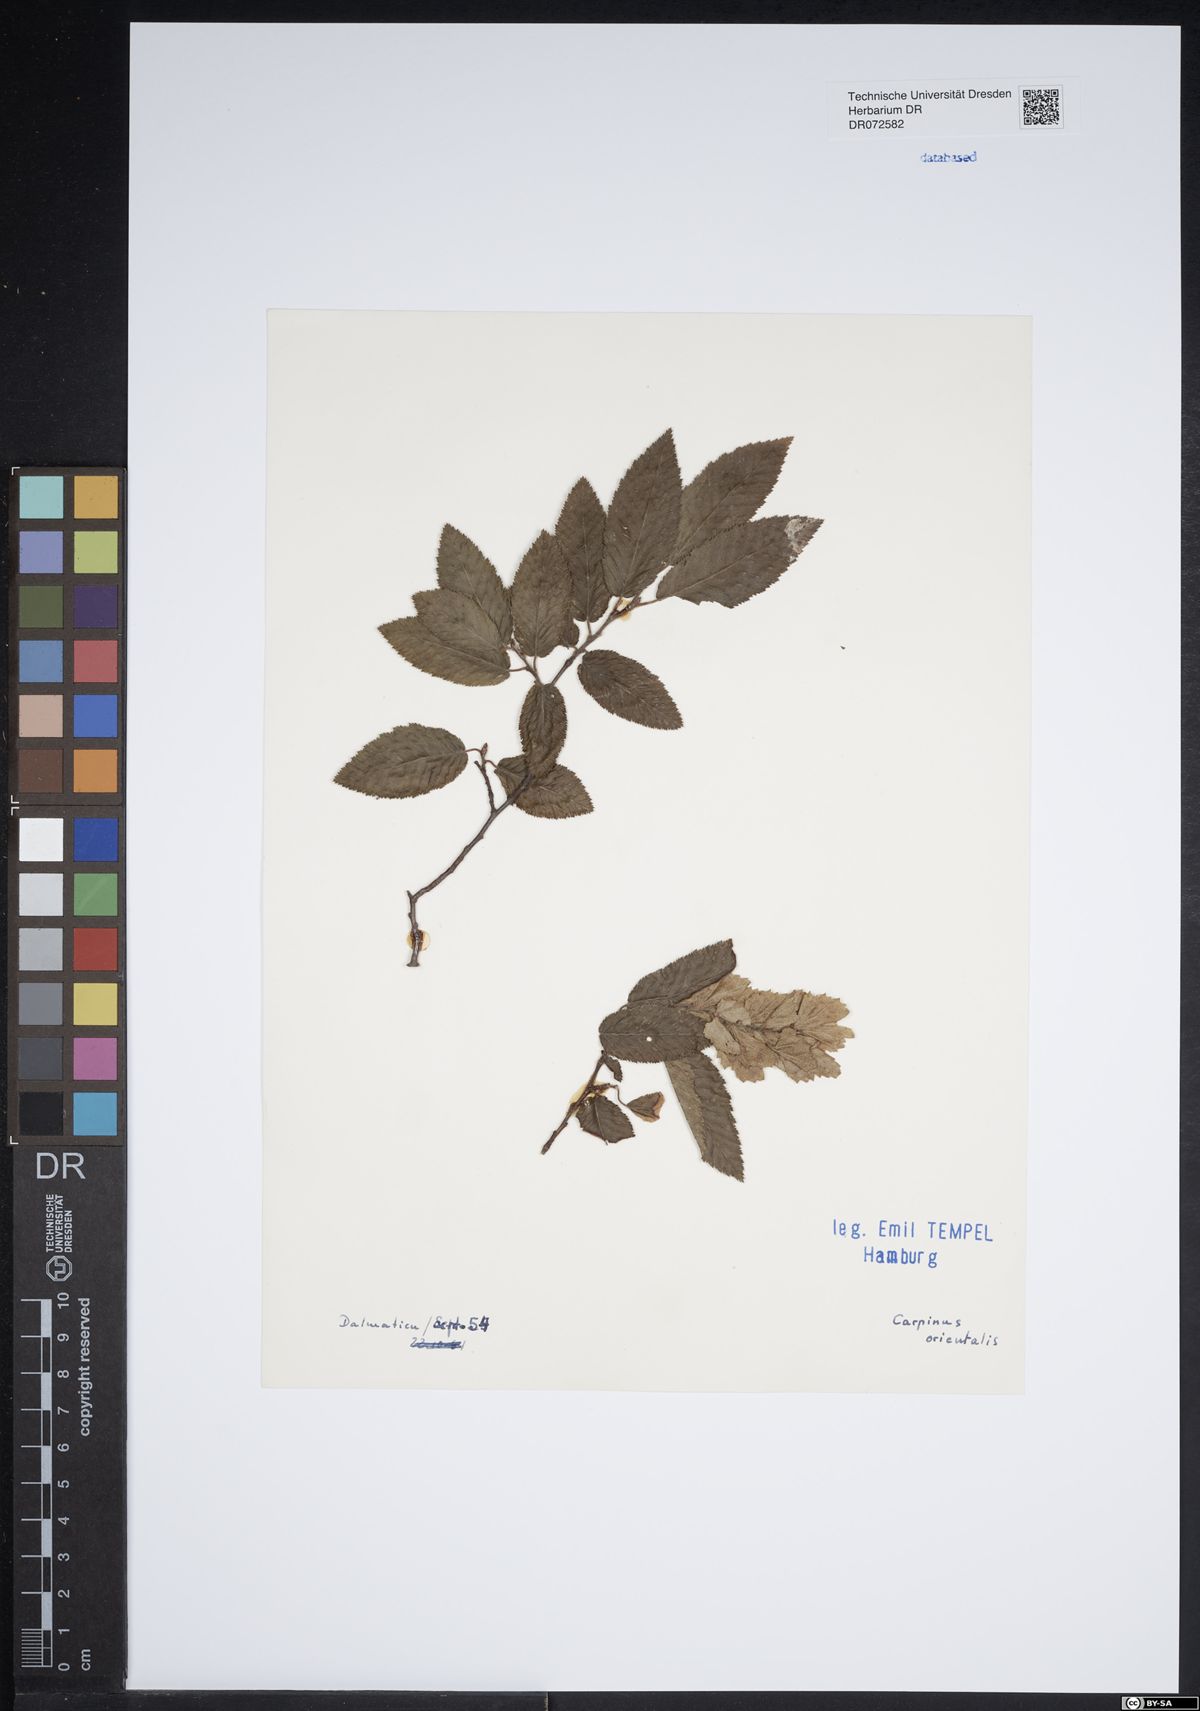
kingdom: Plantae
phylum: Tracheophyta
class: Magnoliopsida
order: Fagales
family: Betulaceae
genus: Carpinus
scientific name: Carpinus orientalis
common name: Eastern hornbeam
